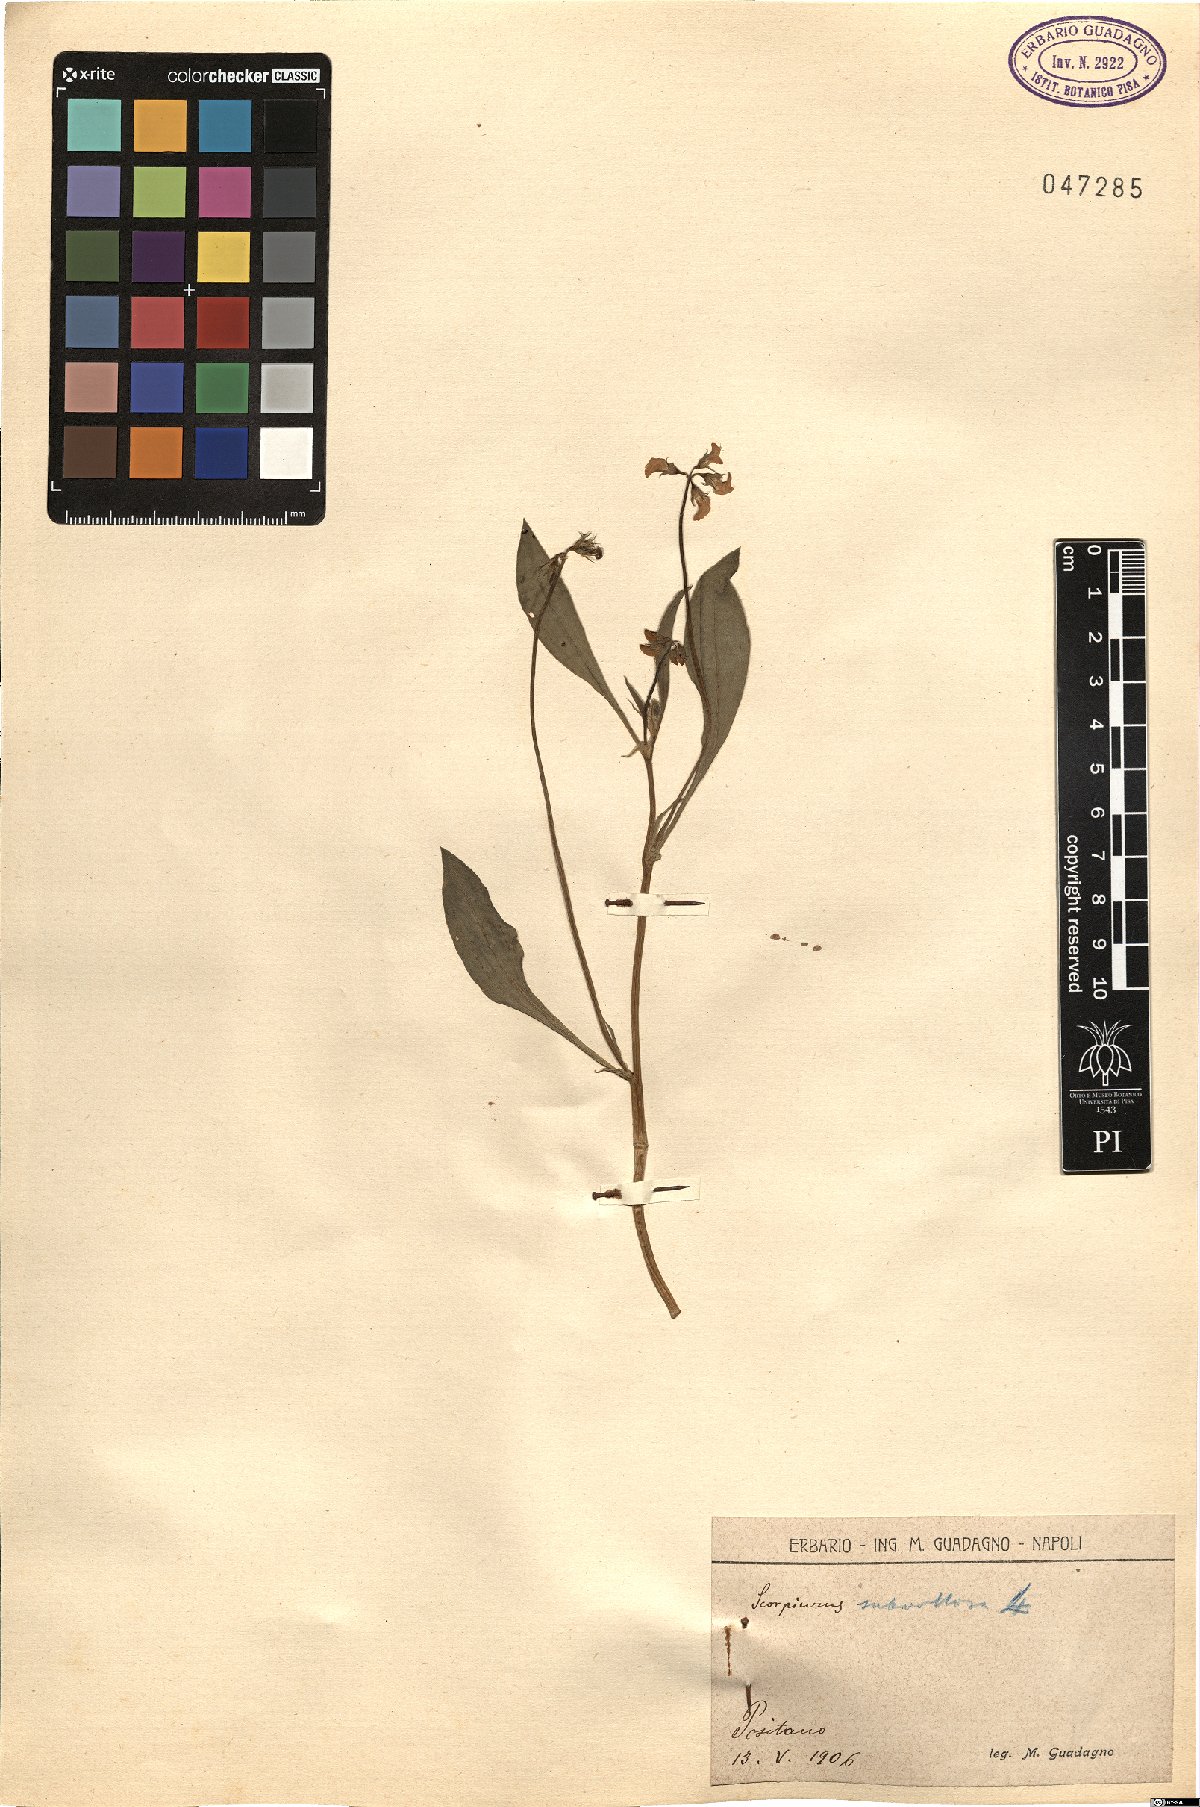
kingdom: Plantae
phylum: Tracheophyta
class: Magnoliopsida
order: Fabales
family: Fabaceae
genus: Scorpiurus
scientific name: Scorpiurus muricatus
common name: Caterpillar-plant
